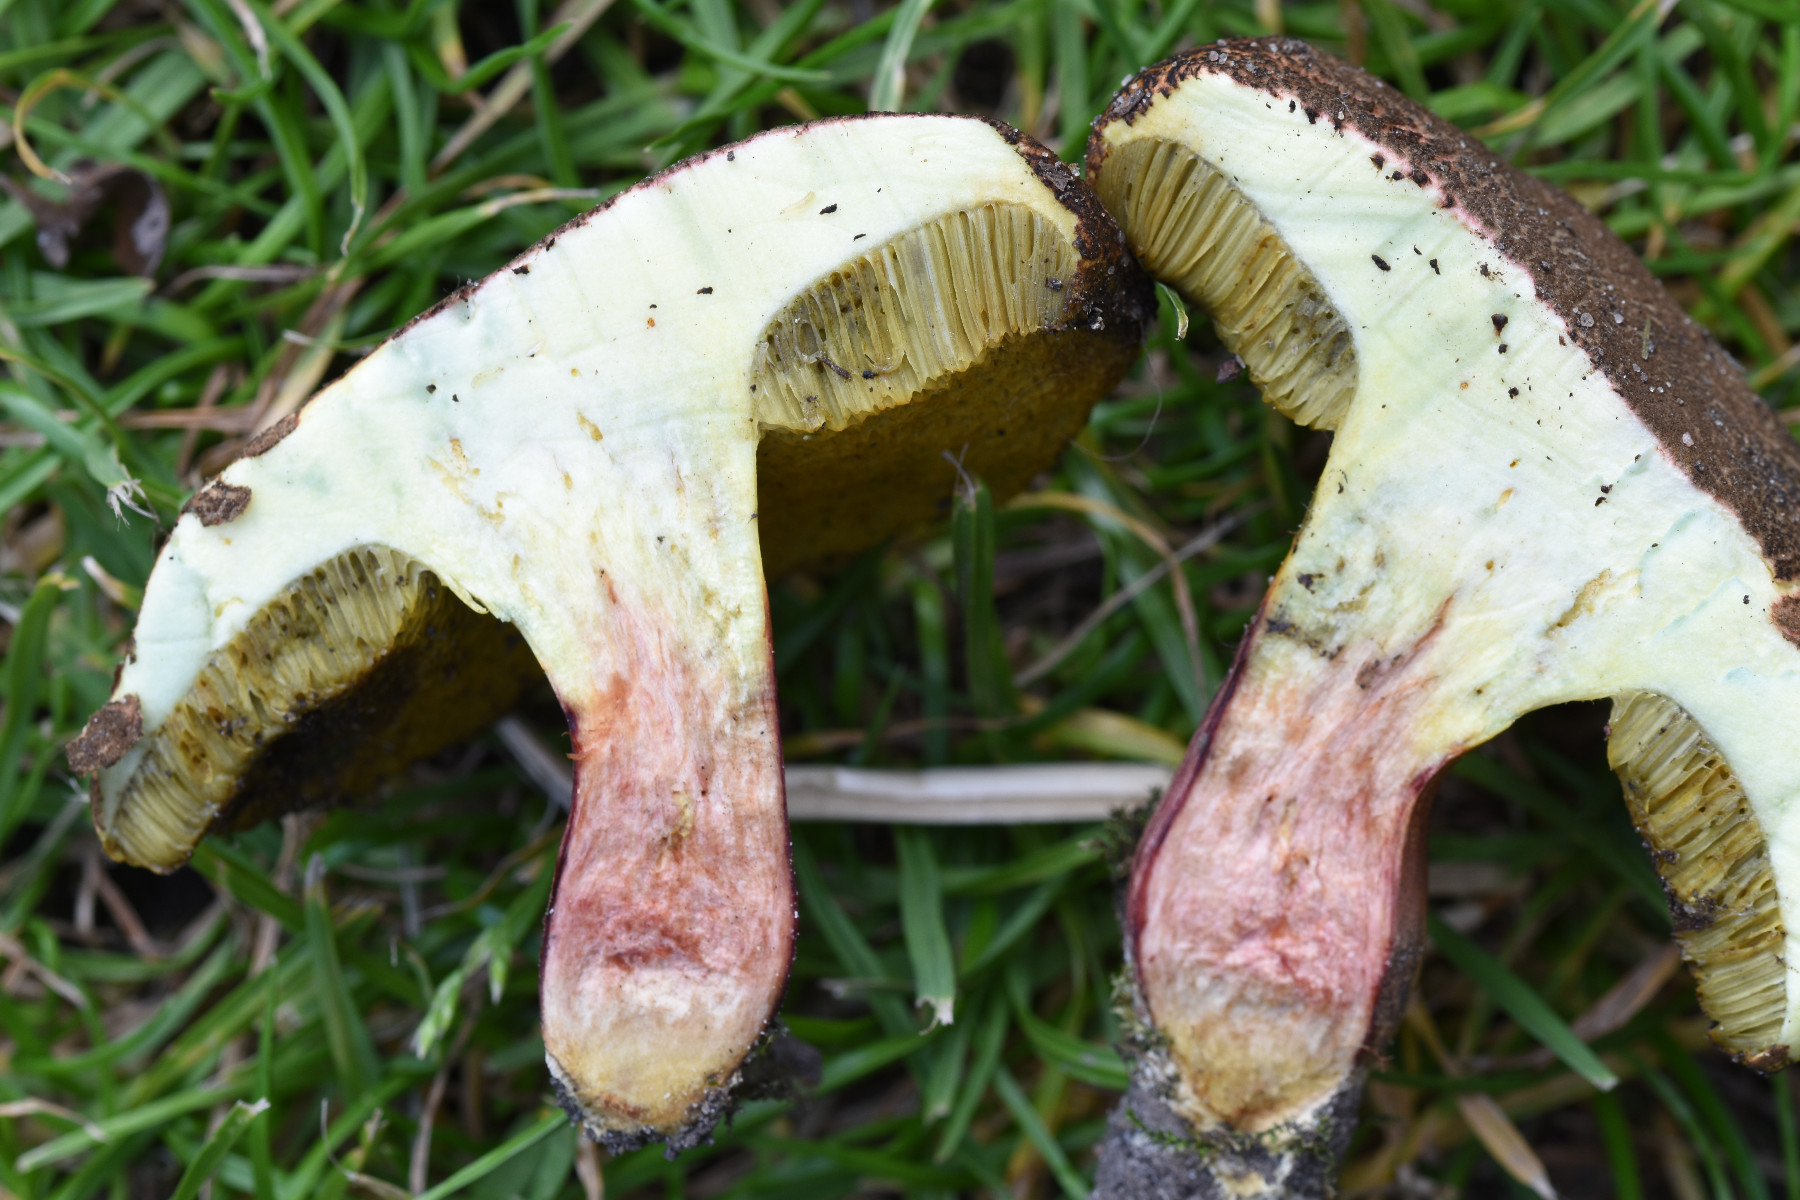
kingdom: Fungi
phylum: Basidiomycota
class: Agaricomycetes
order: Boletales
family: Boletaceae
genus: Xerocomellus
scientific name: Xerocomellus chrysenteron
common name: rødsprukken rørhat
